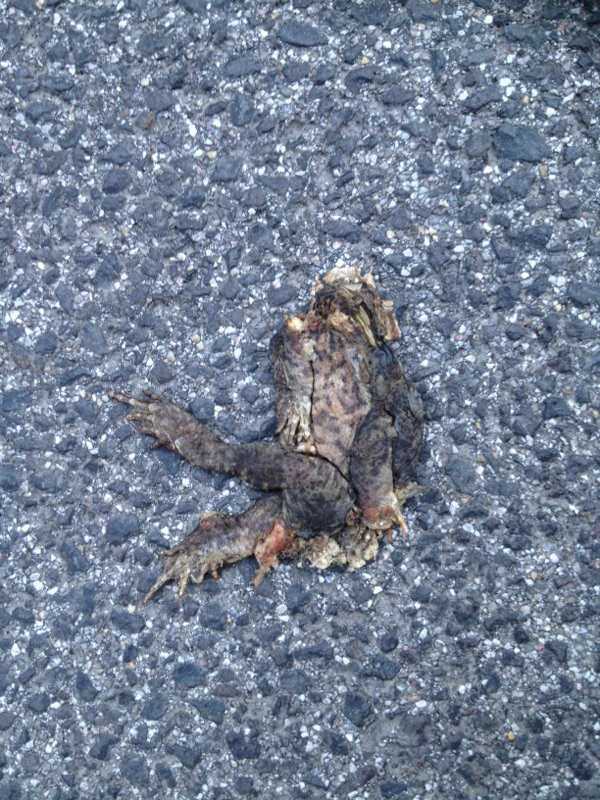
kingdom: Animalia
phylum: Chordata
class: Amphibia
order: Anura
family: Bufonidae
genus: Bufo
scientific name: Bufo bufo
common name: Common toad
